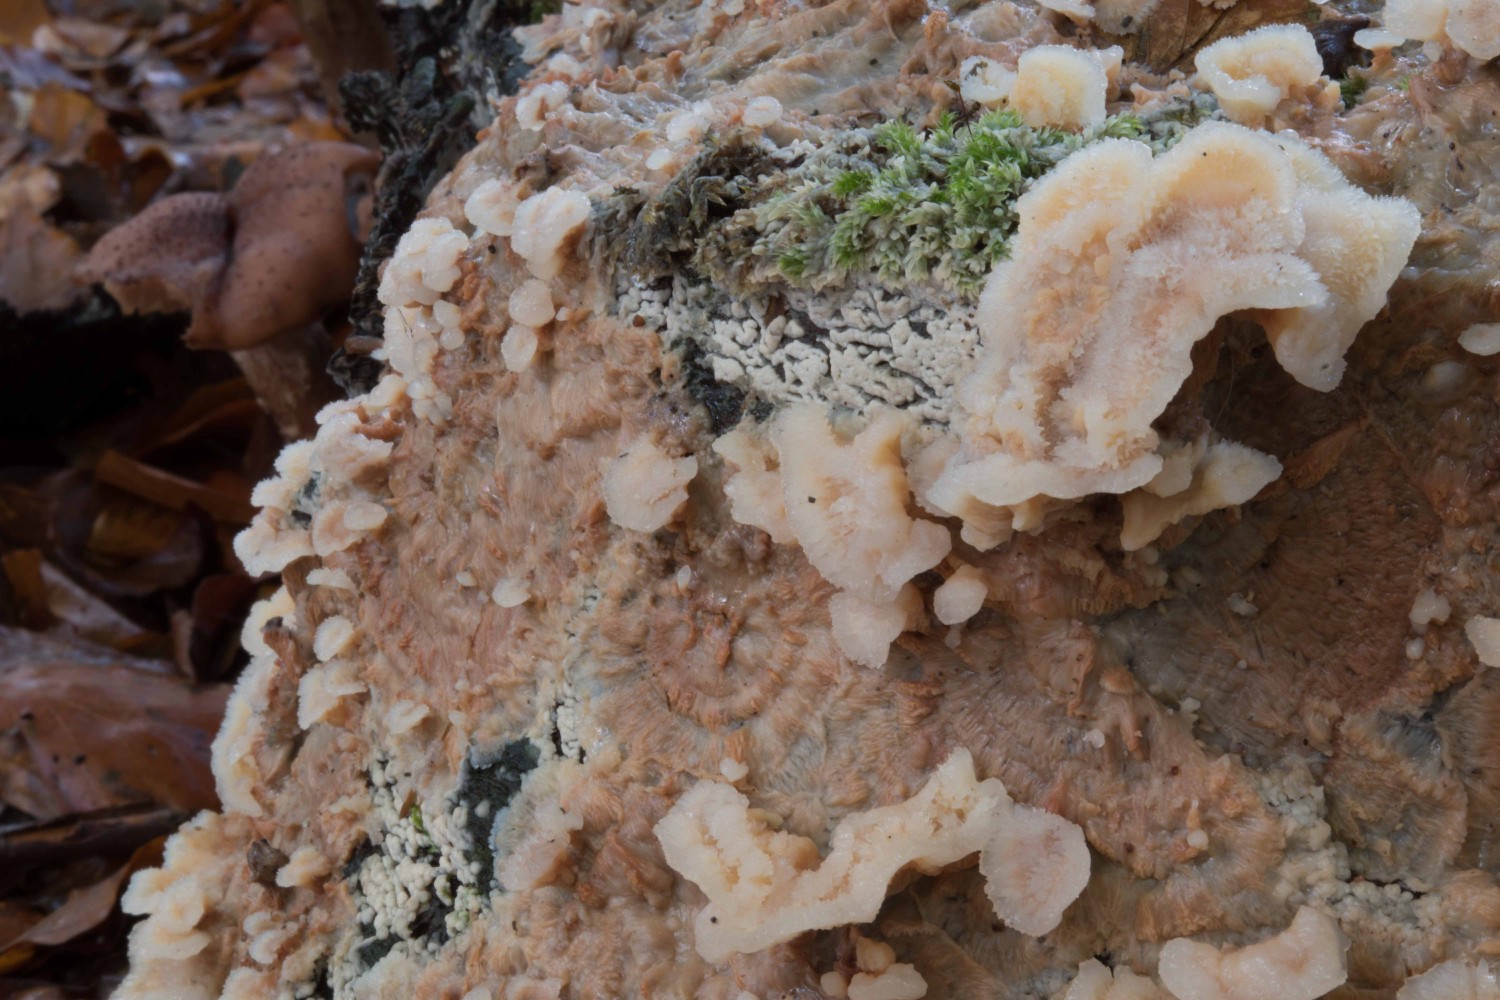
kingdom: Fungi
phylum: Basidiomycota
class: Agaricomycetes
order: Polyporales
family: Meruliaceae
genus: Phlebia
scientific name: Phlebia tremellosa
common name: bævrende åresvamp
